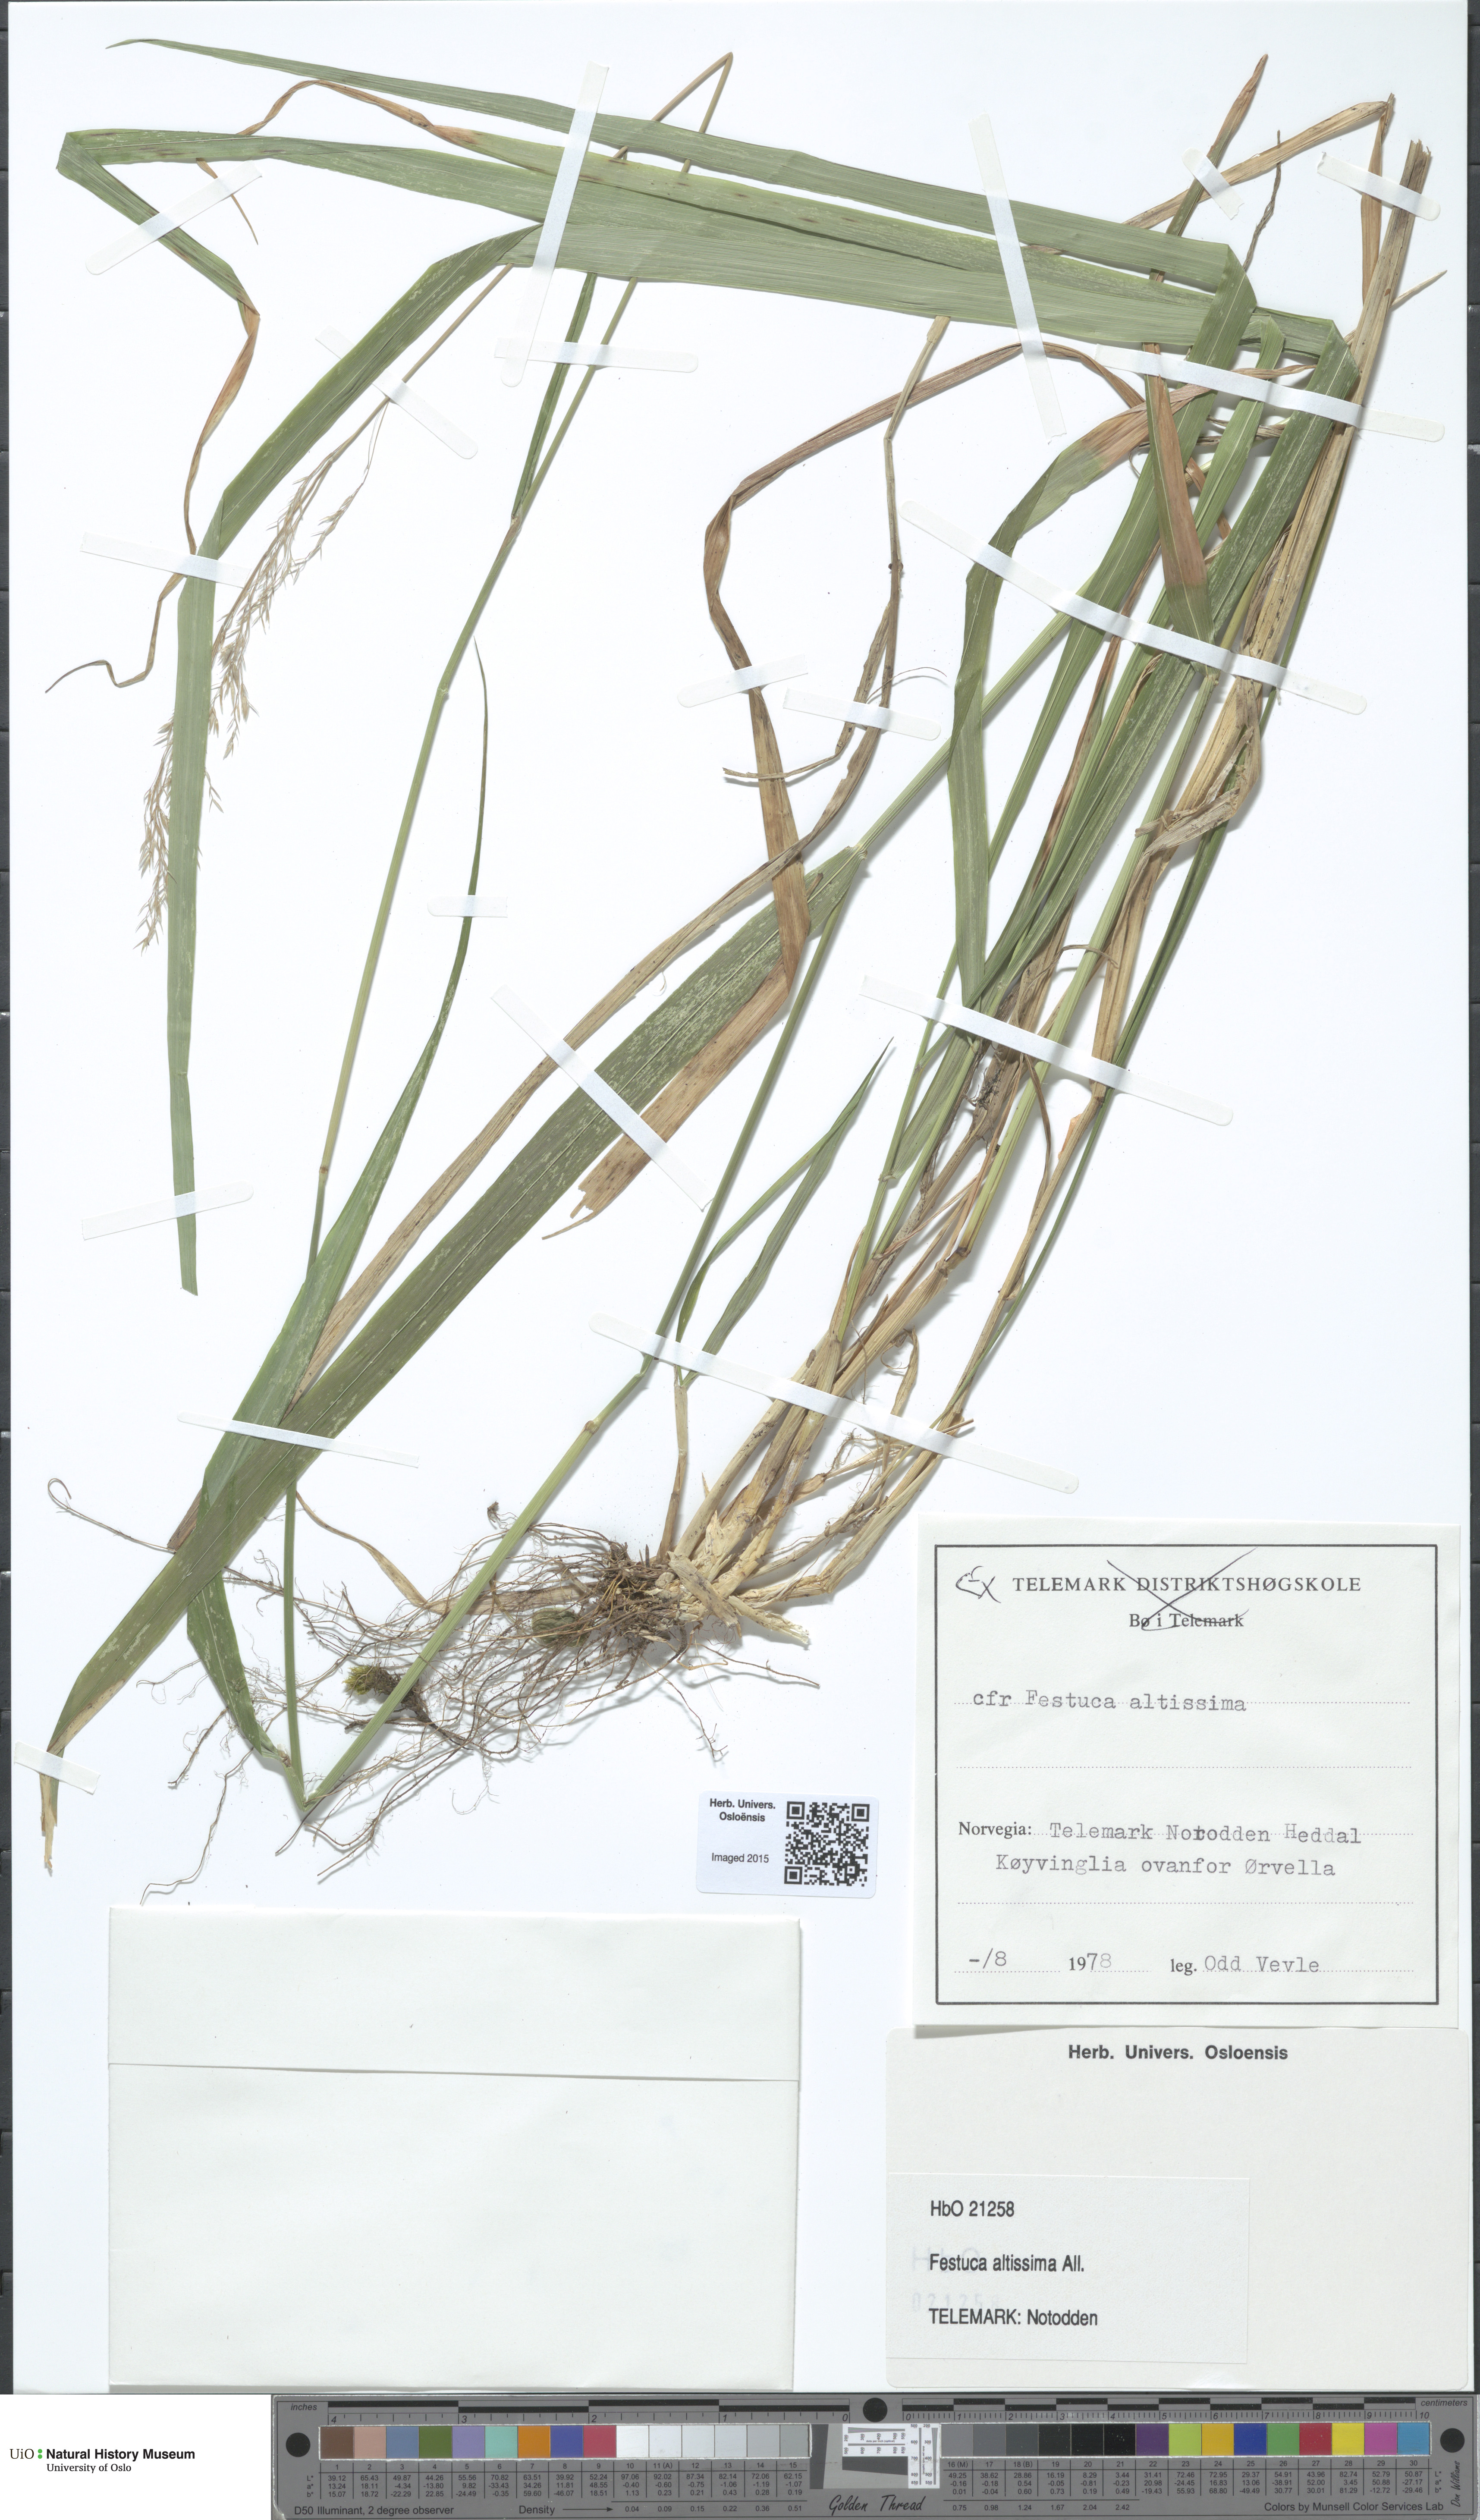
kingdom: Plantae
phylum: Tracheophyta
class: Liliopsida
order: Poales
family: Poaceae
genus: Festuca
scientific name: Festuca altissima
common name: Wood fescue
